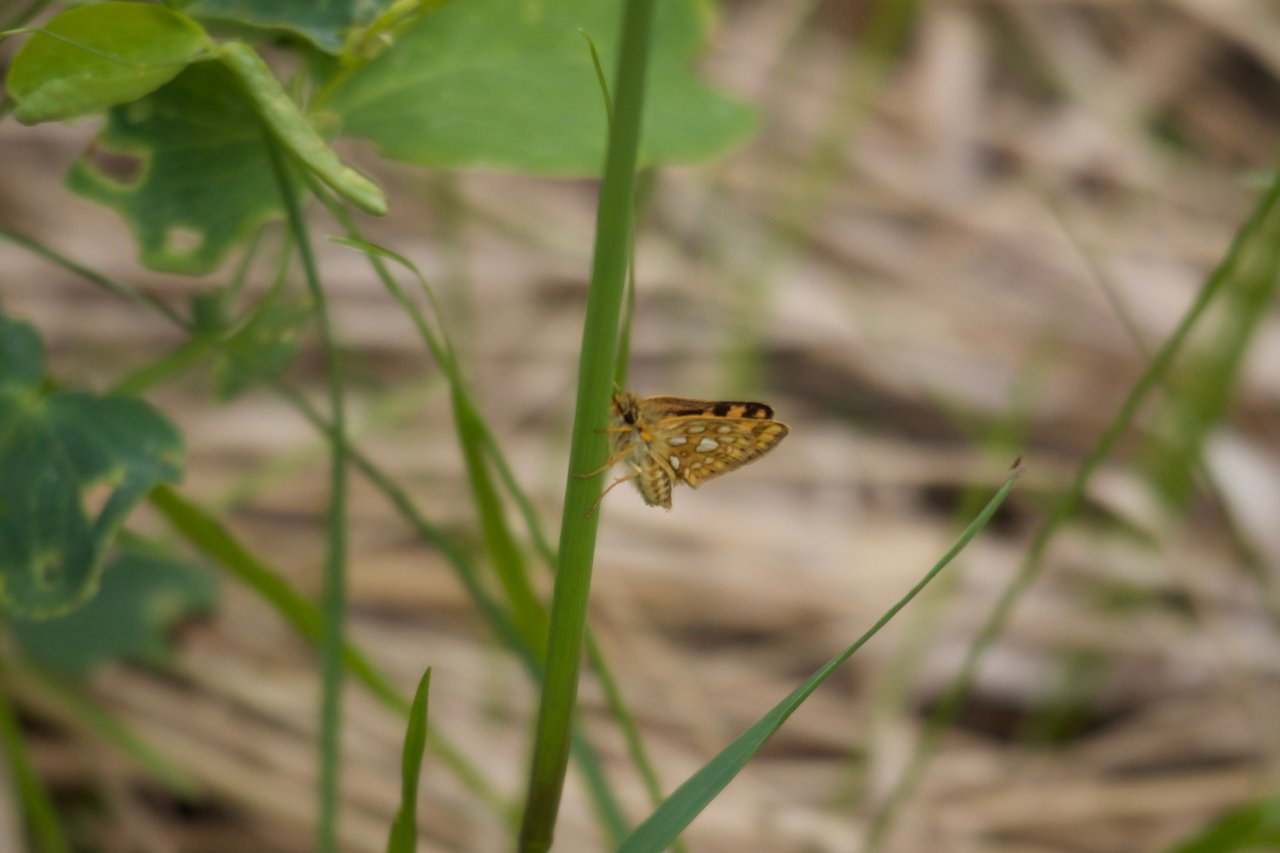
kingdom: Animalia
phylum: Arthropoda
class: Insecta
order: Lepidoptera
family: Hesperiidae
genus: Carterocephalus
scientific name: Carterocephalus palaemon
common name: Chequered Skipper
